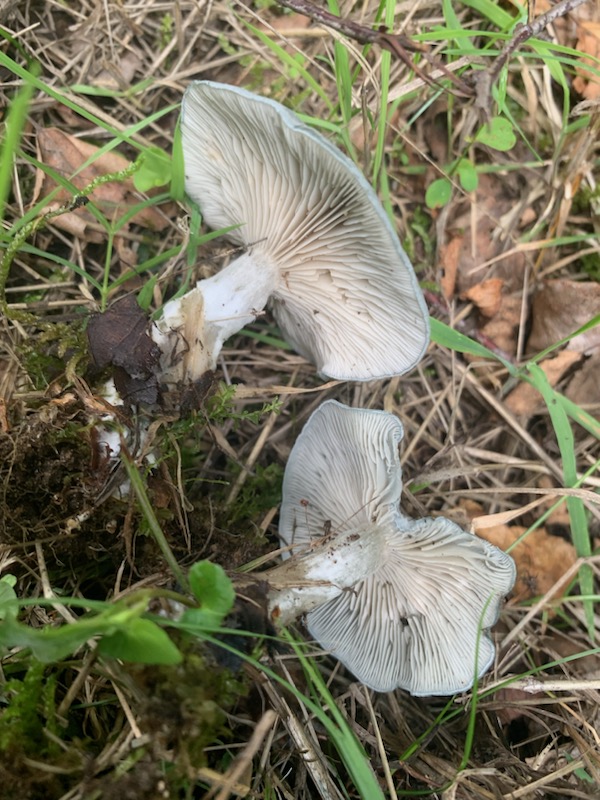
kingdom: Fungi
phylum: Basidiomycota
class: Agaricomycetes
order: Agaricales
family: Tricholomataceae
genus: Clitocybe
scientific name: Clitocybe odora
